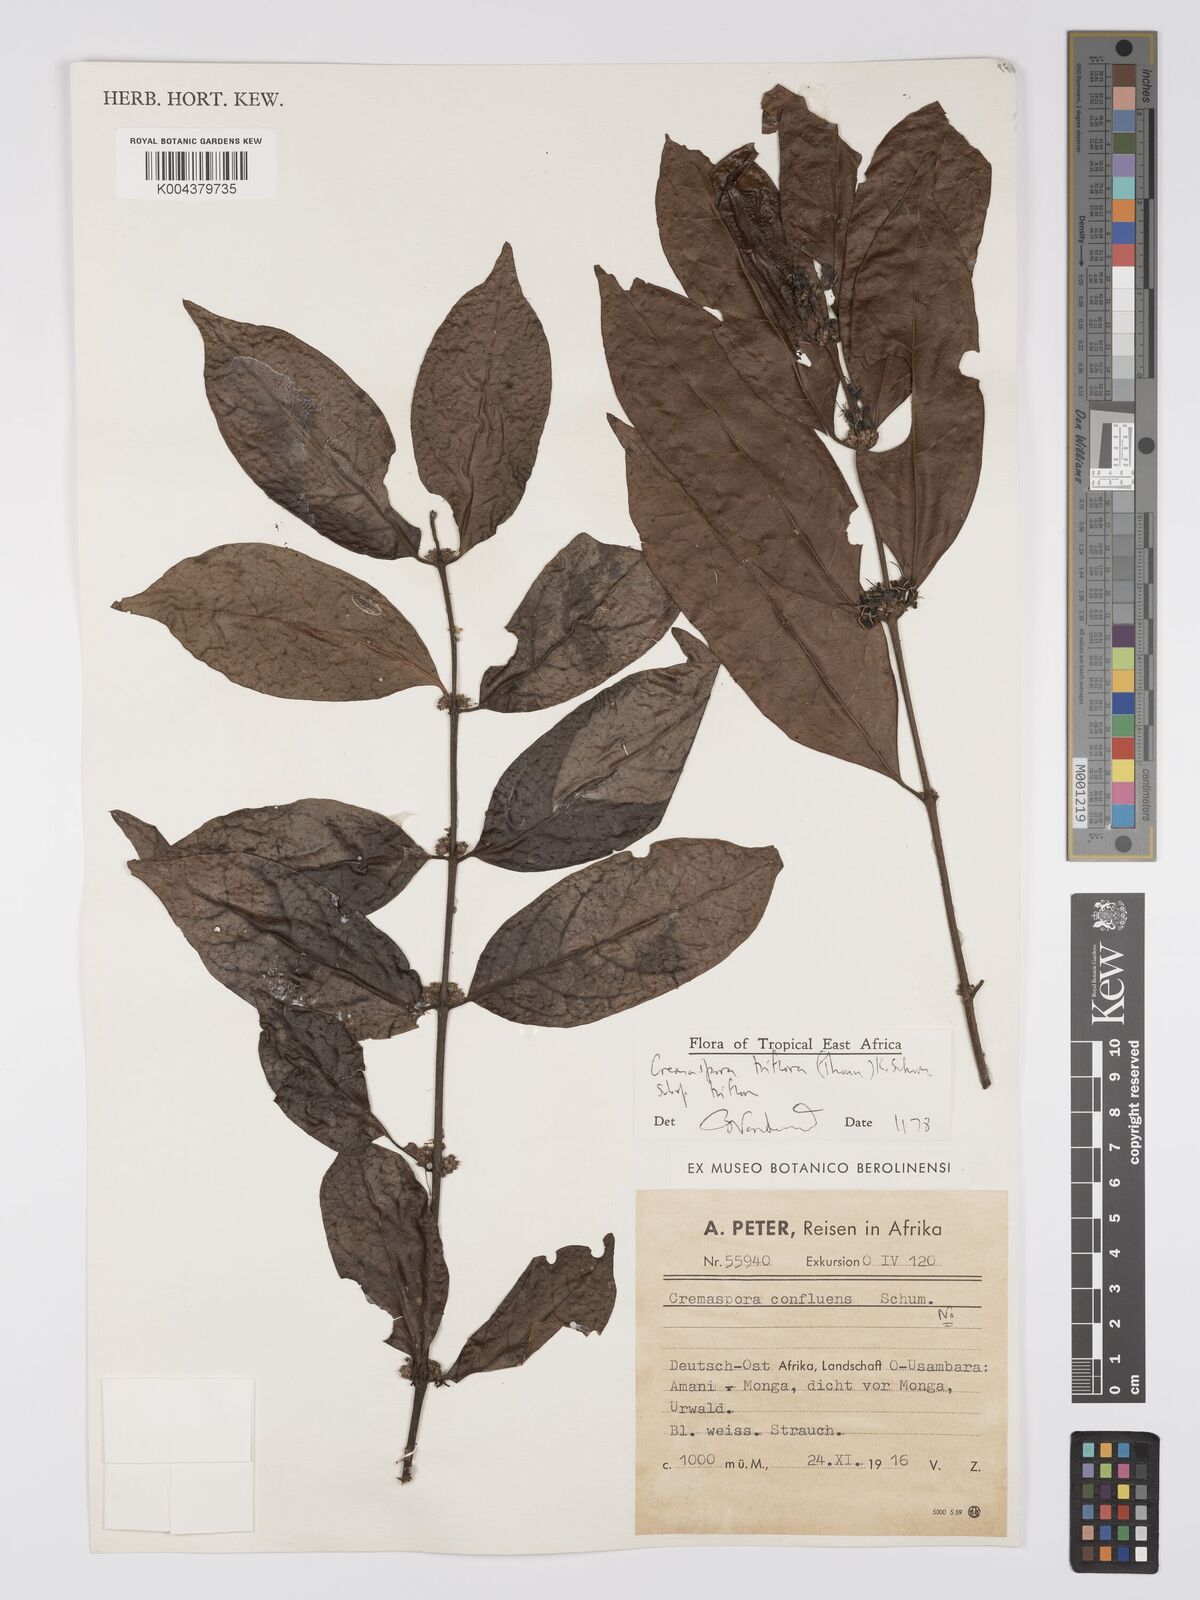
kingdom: Plantae
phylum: Tracheophyta
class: Magnoliopsida
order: Gentianales
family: Rubiaceae
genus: Cremaspora
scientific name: Cremaspora triflora
